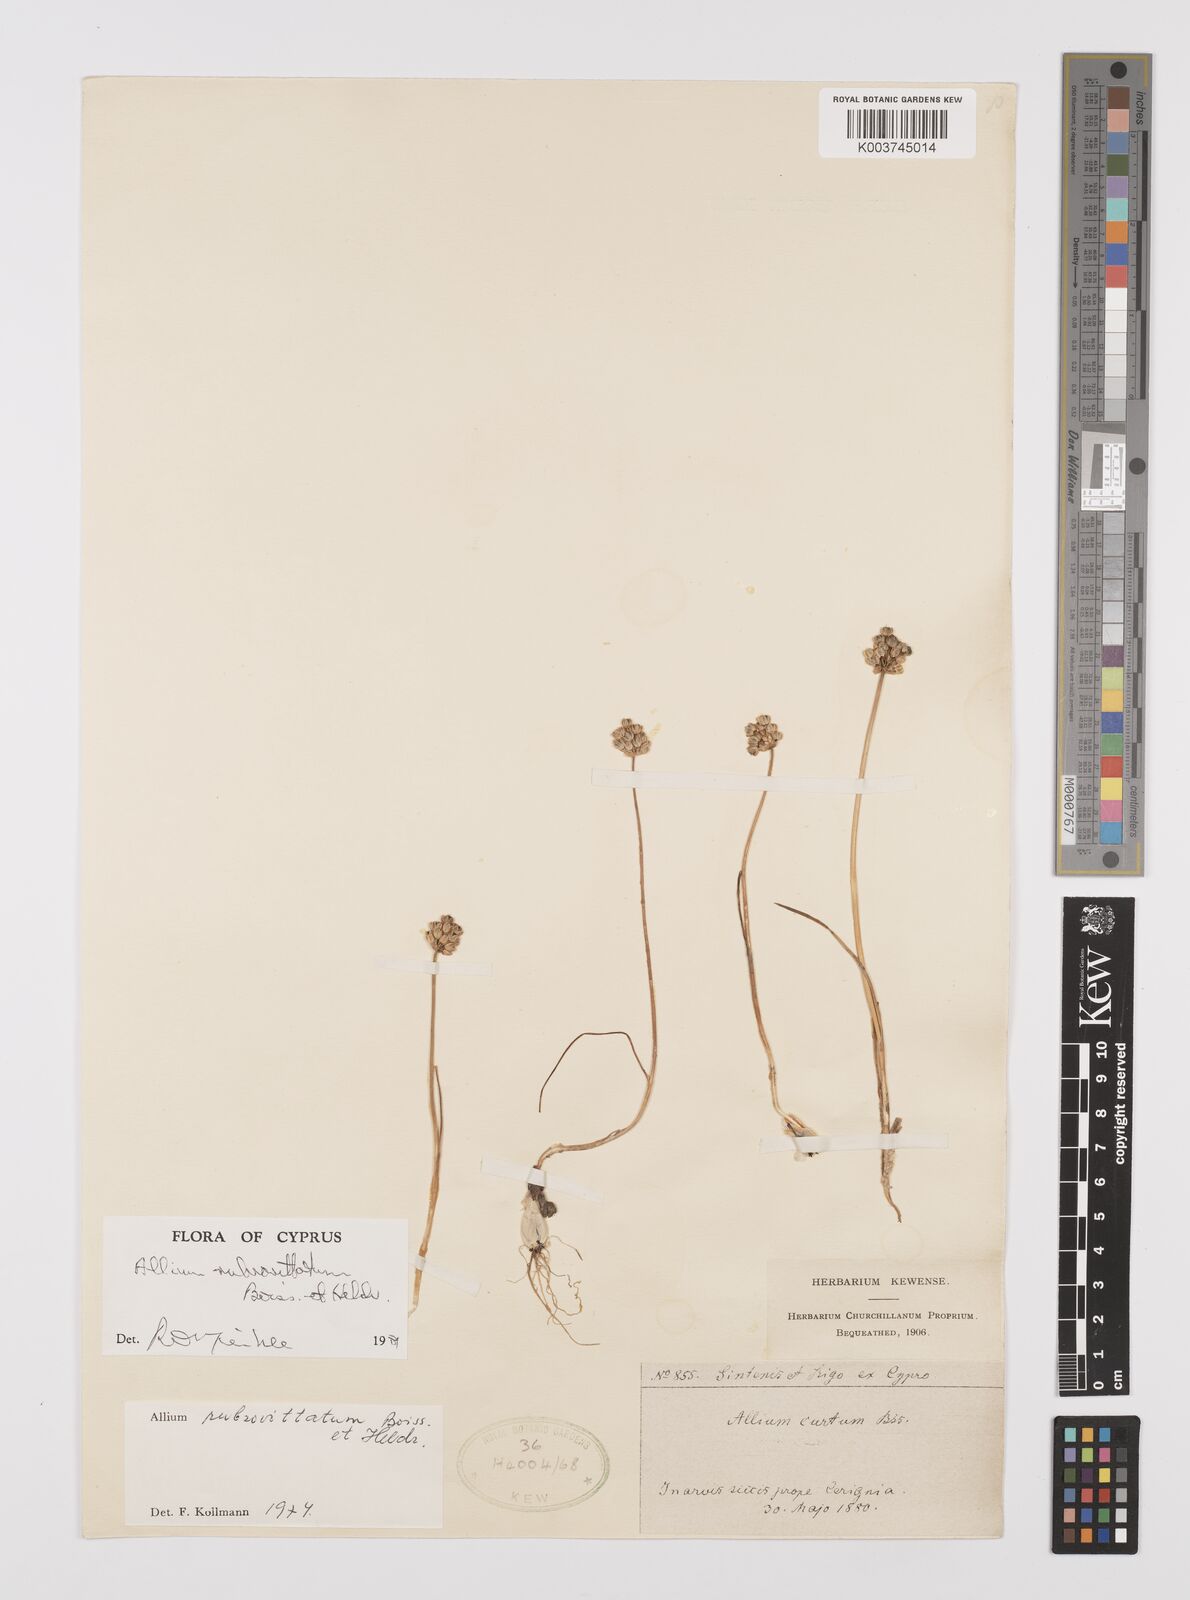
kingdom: Plantae
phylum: Tracheophyta
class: Liliopsida
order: Asparagales
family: Amaryllidaceae
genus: Allium
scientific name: Allium rubrovittatum
